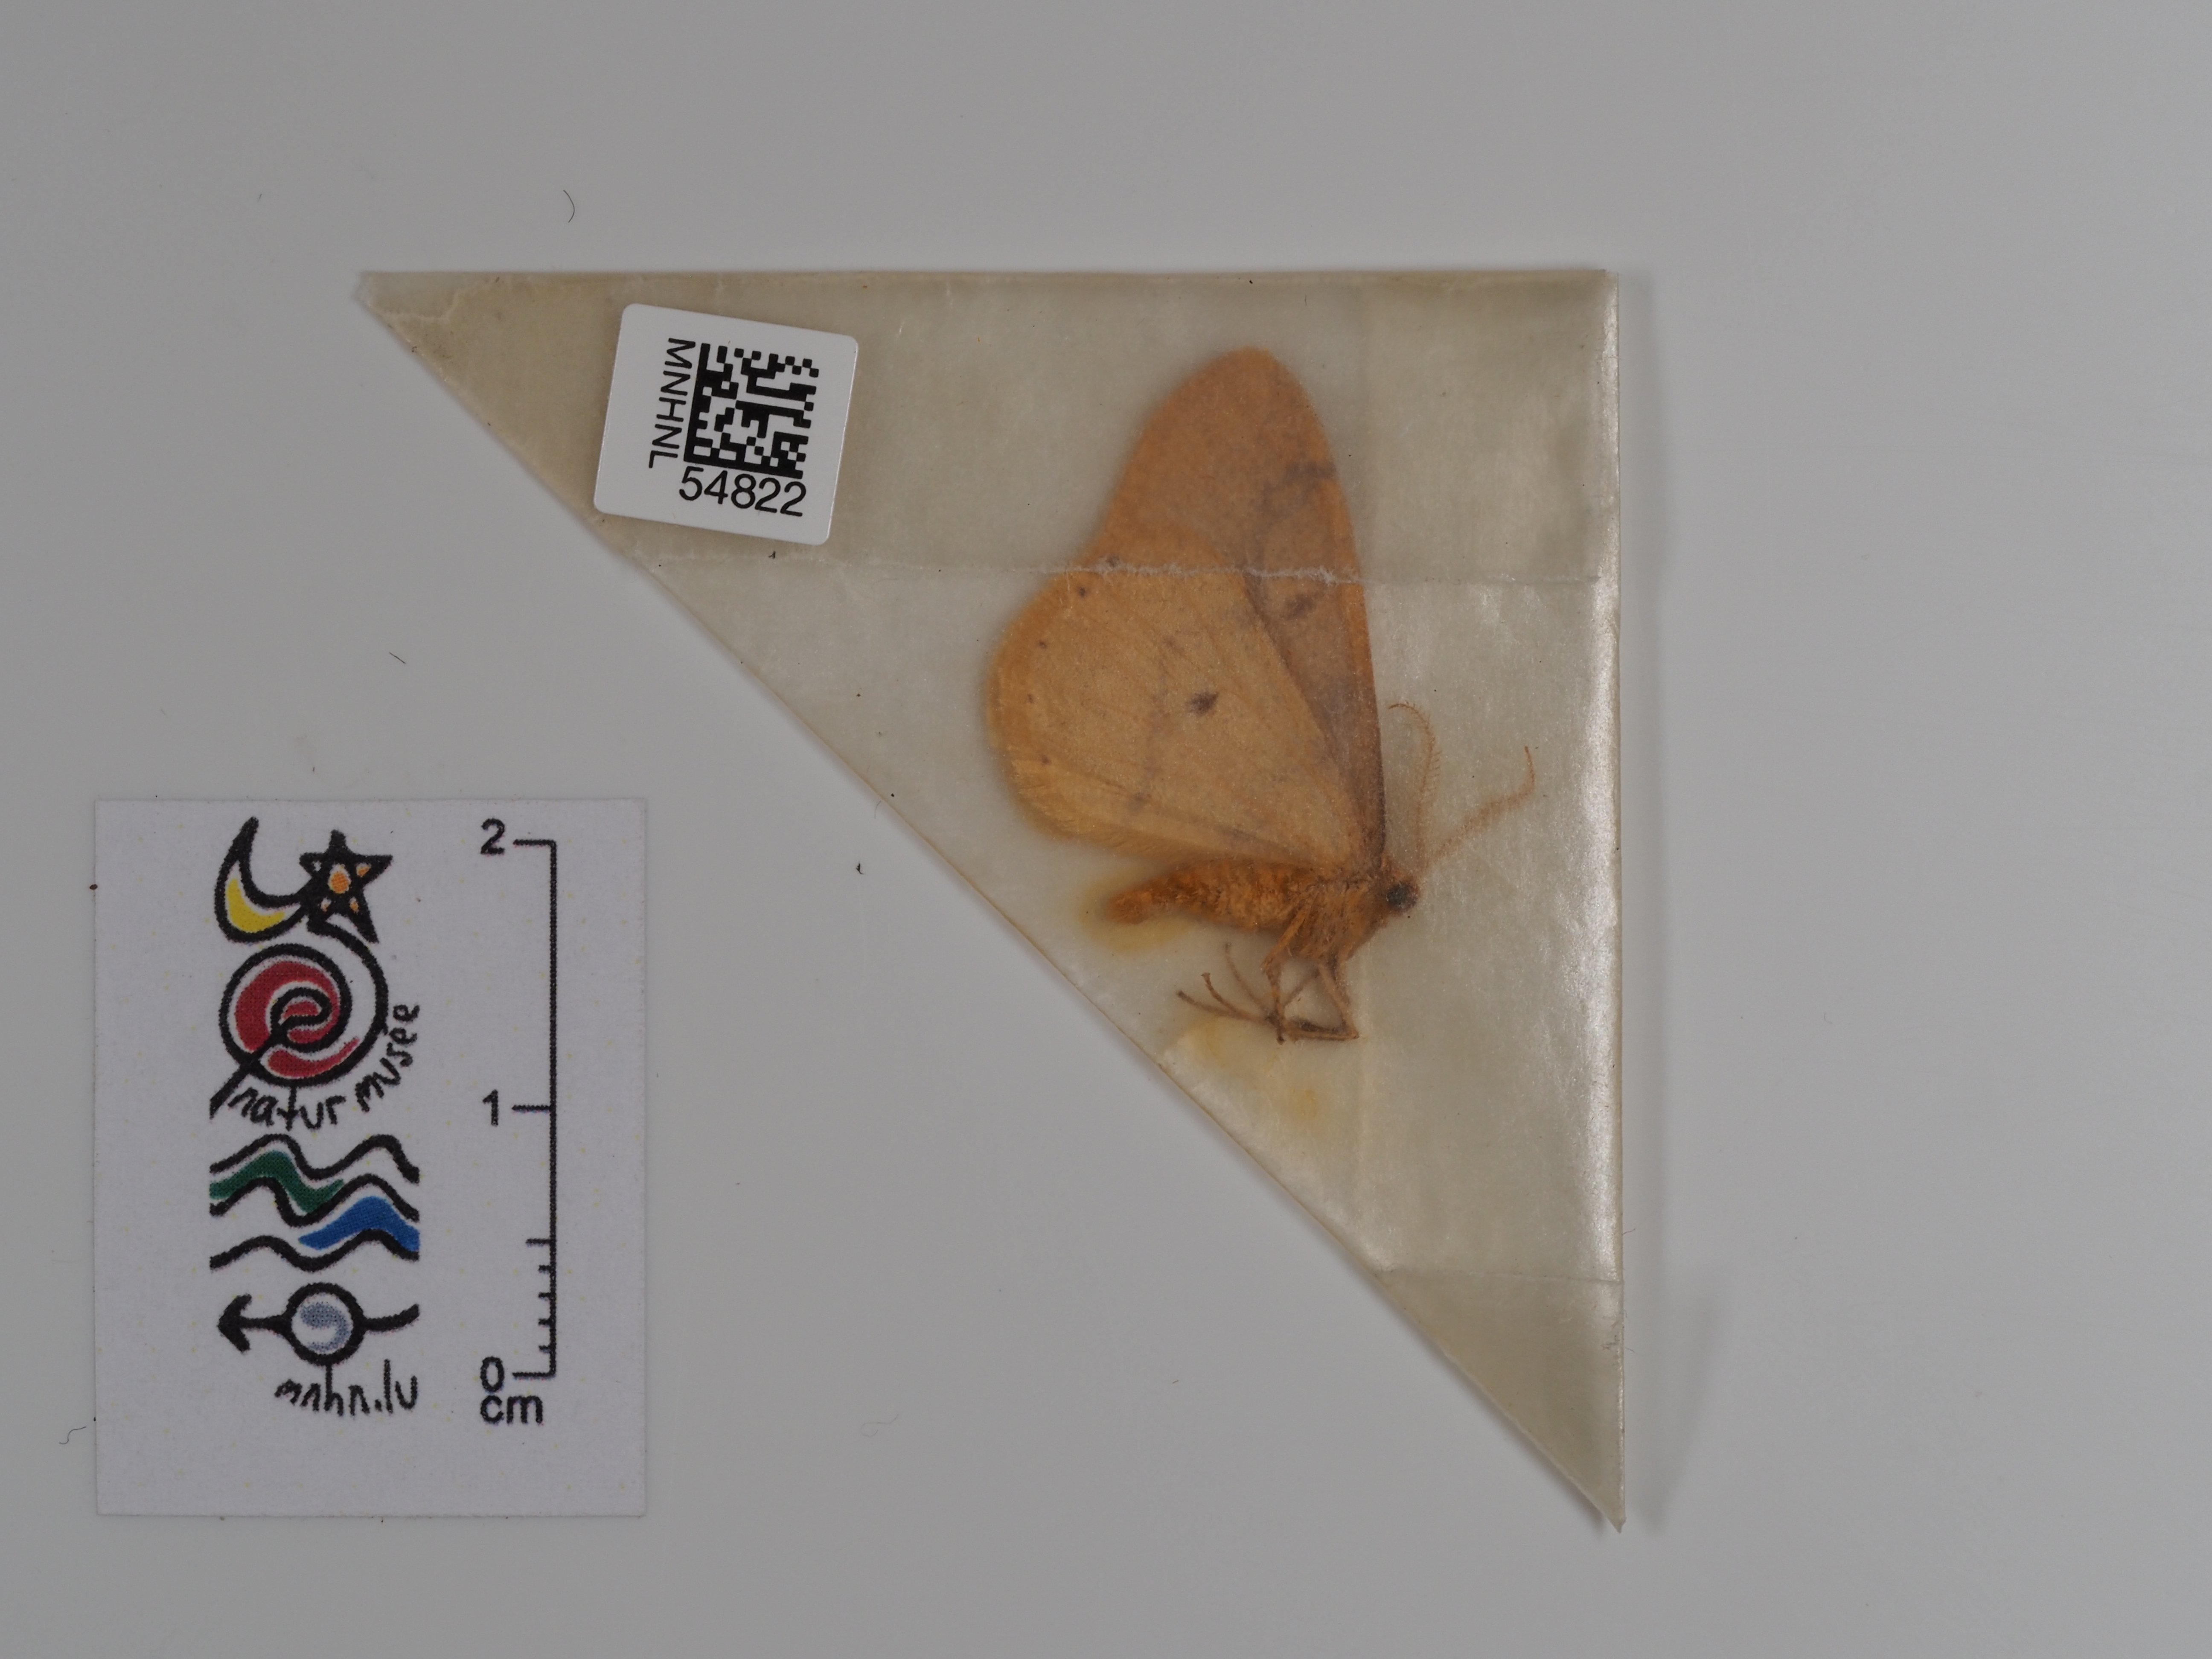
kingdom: Animalia
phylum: Arthropoda
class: Insecta
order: Lepidoptera
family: Geometridae
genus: Agriopis
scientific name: Agriopis aurantiaria
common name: Scarce umber
